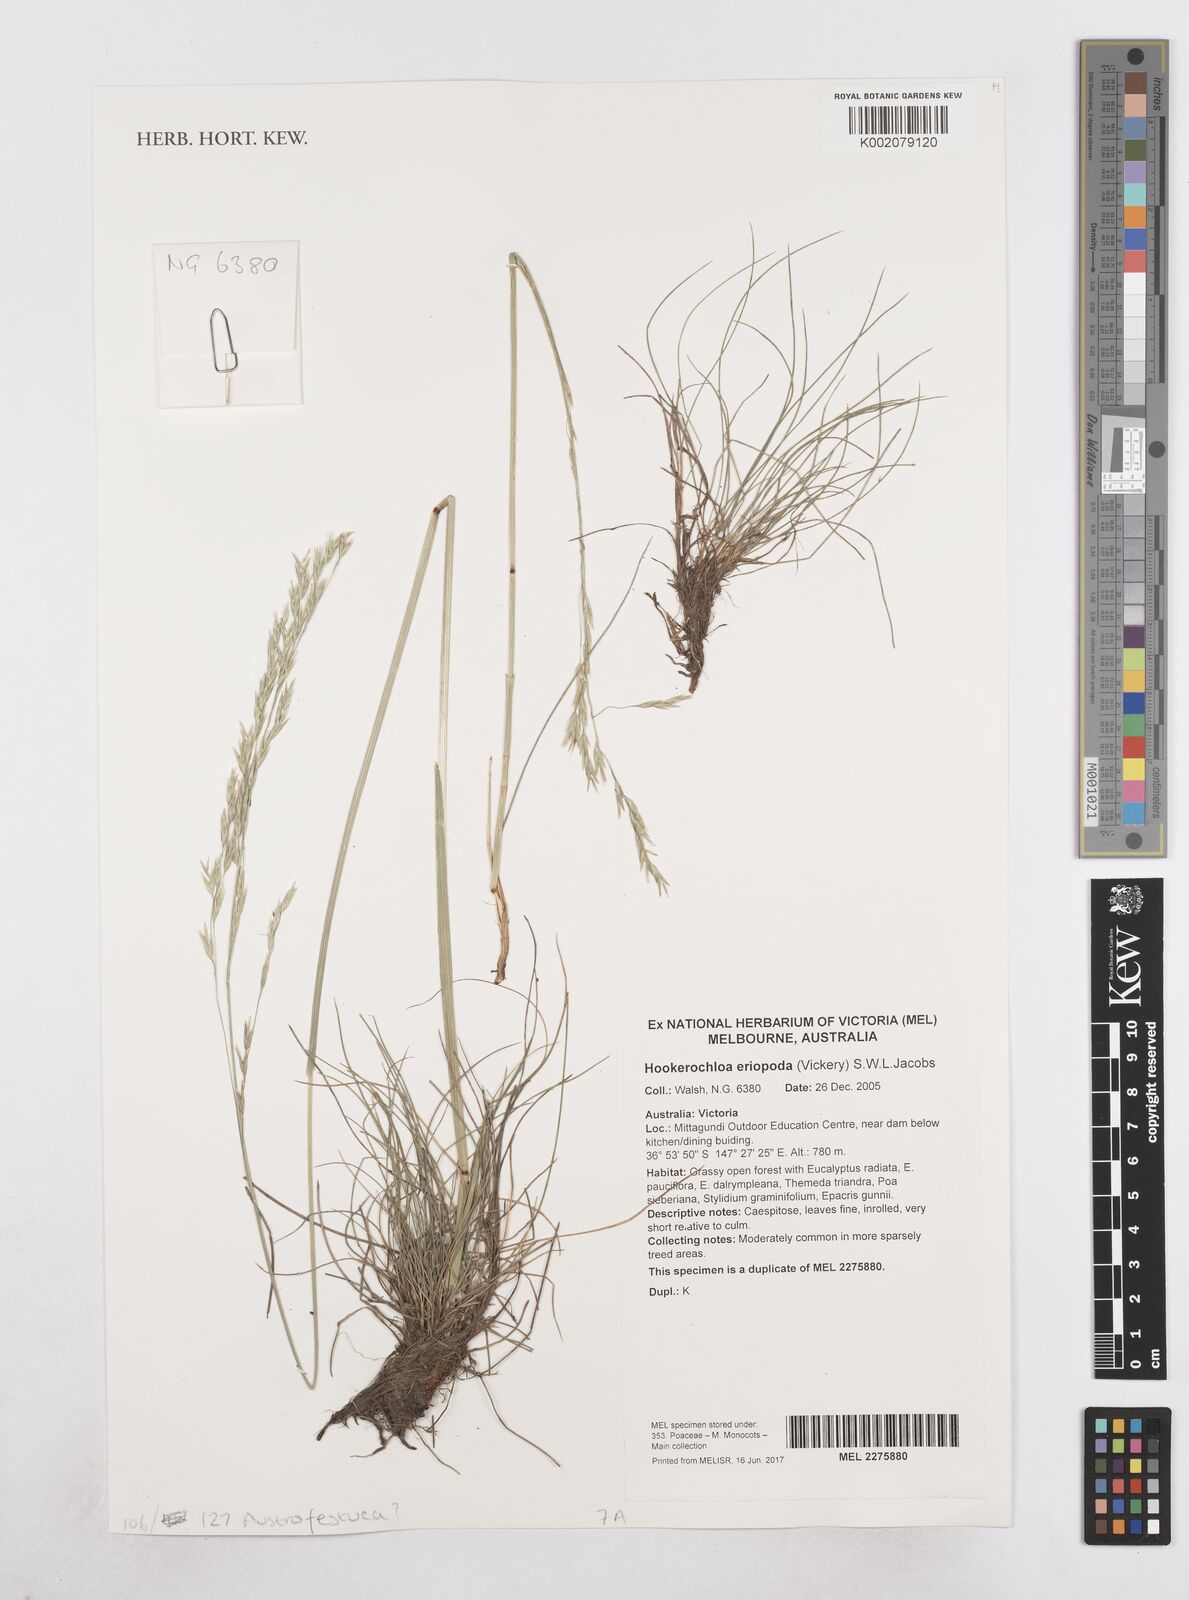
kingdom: Plantae
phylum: Tracheophyta
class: Liliopsida
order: Poales
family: Poaceae
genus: Hookerochloa
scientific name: Hookerochloa eriopoda
